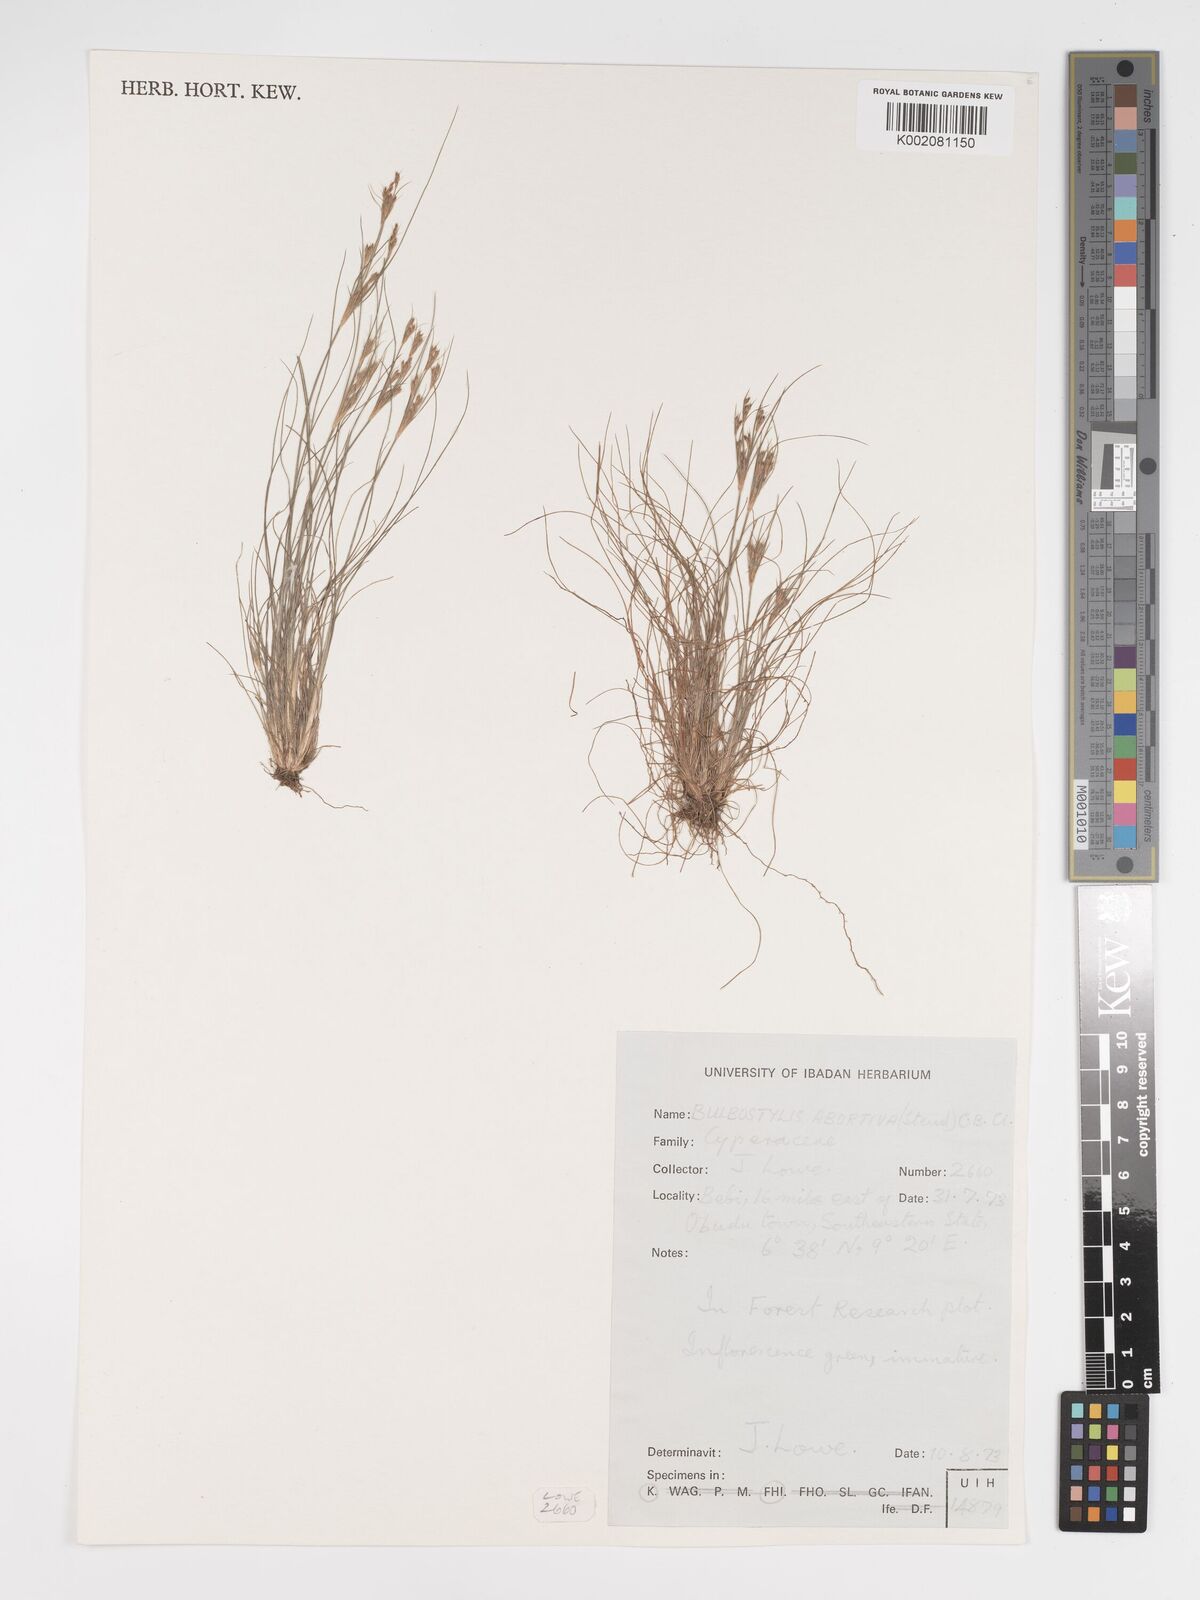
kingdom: Plantae
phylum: Tracheophyta
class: Liliopsida
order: Poales
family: Cyperaceae
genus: Bulbostylis
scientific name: Bulbostylis abortiva
